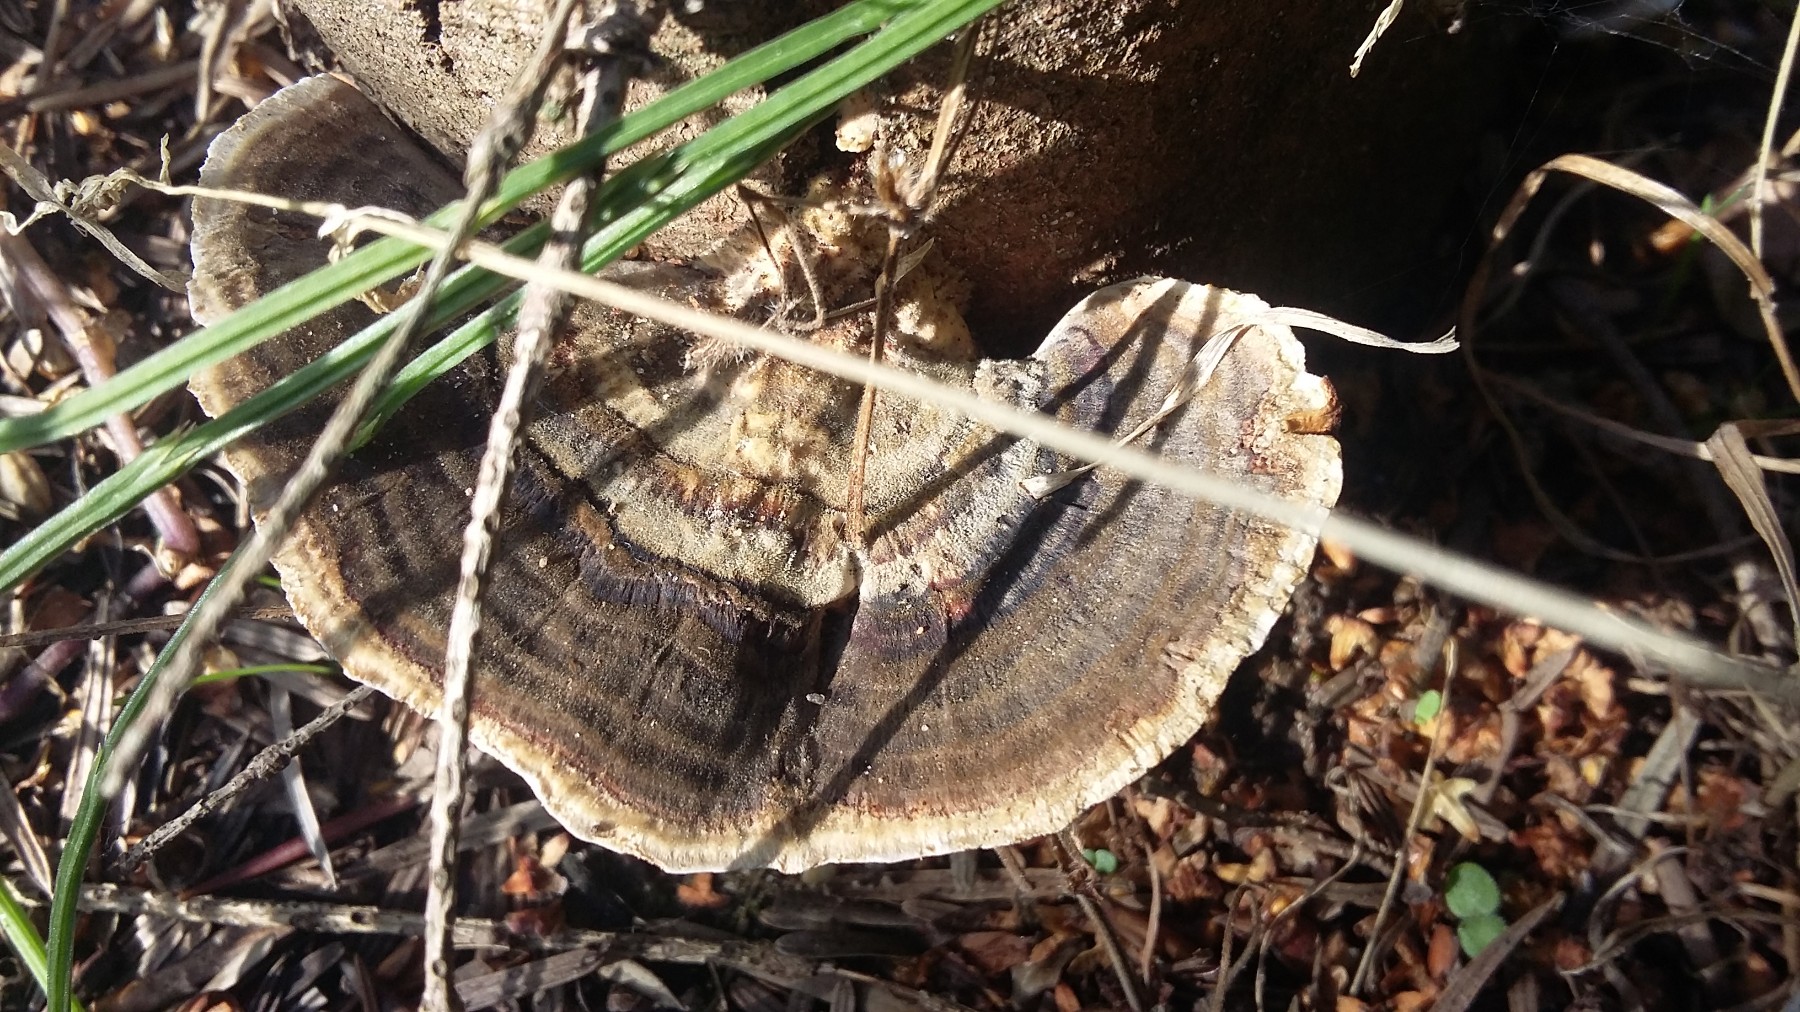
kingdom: Fungi
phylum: Basidiomycota
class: Agaricomycetes
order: Polyporales
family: Polyporaceae
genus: Trametes
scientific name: Trametes versicolor
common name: broget læderporesvamp
